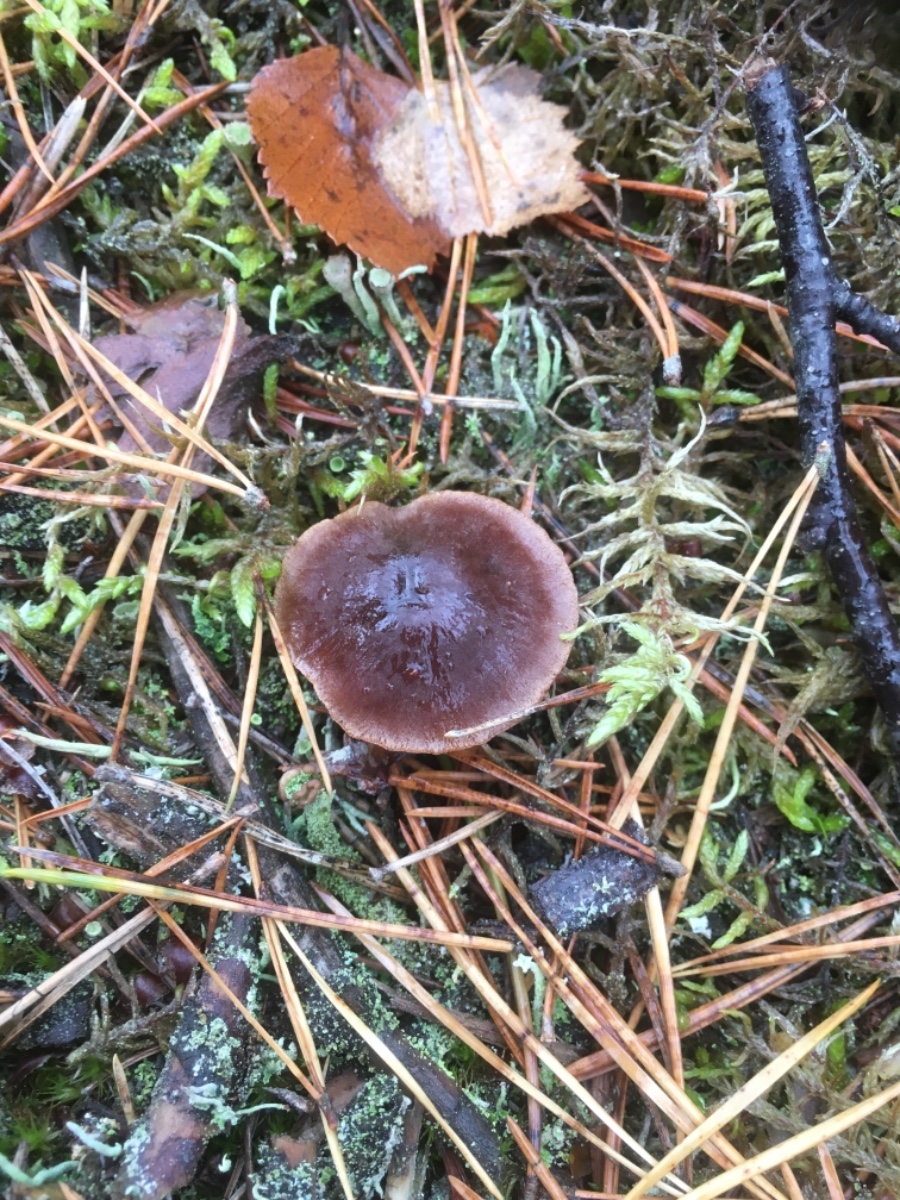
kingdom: Fungi
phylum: Basidiomycota
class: Agaricomycetes
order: Agaricales
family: Cortinariaceae
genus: Cortinarius
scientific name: Cortinarius
